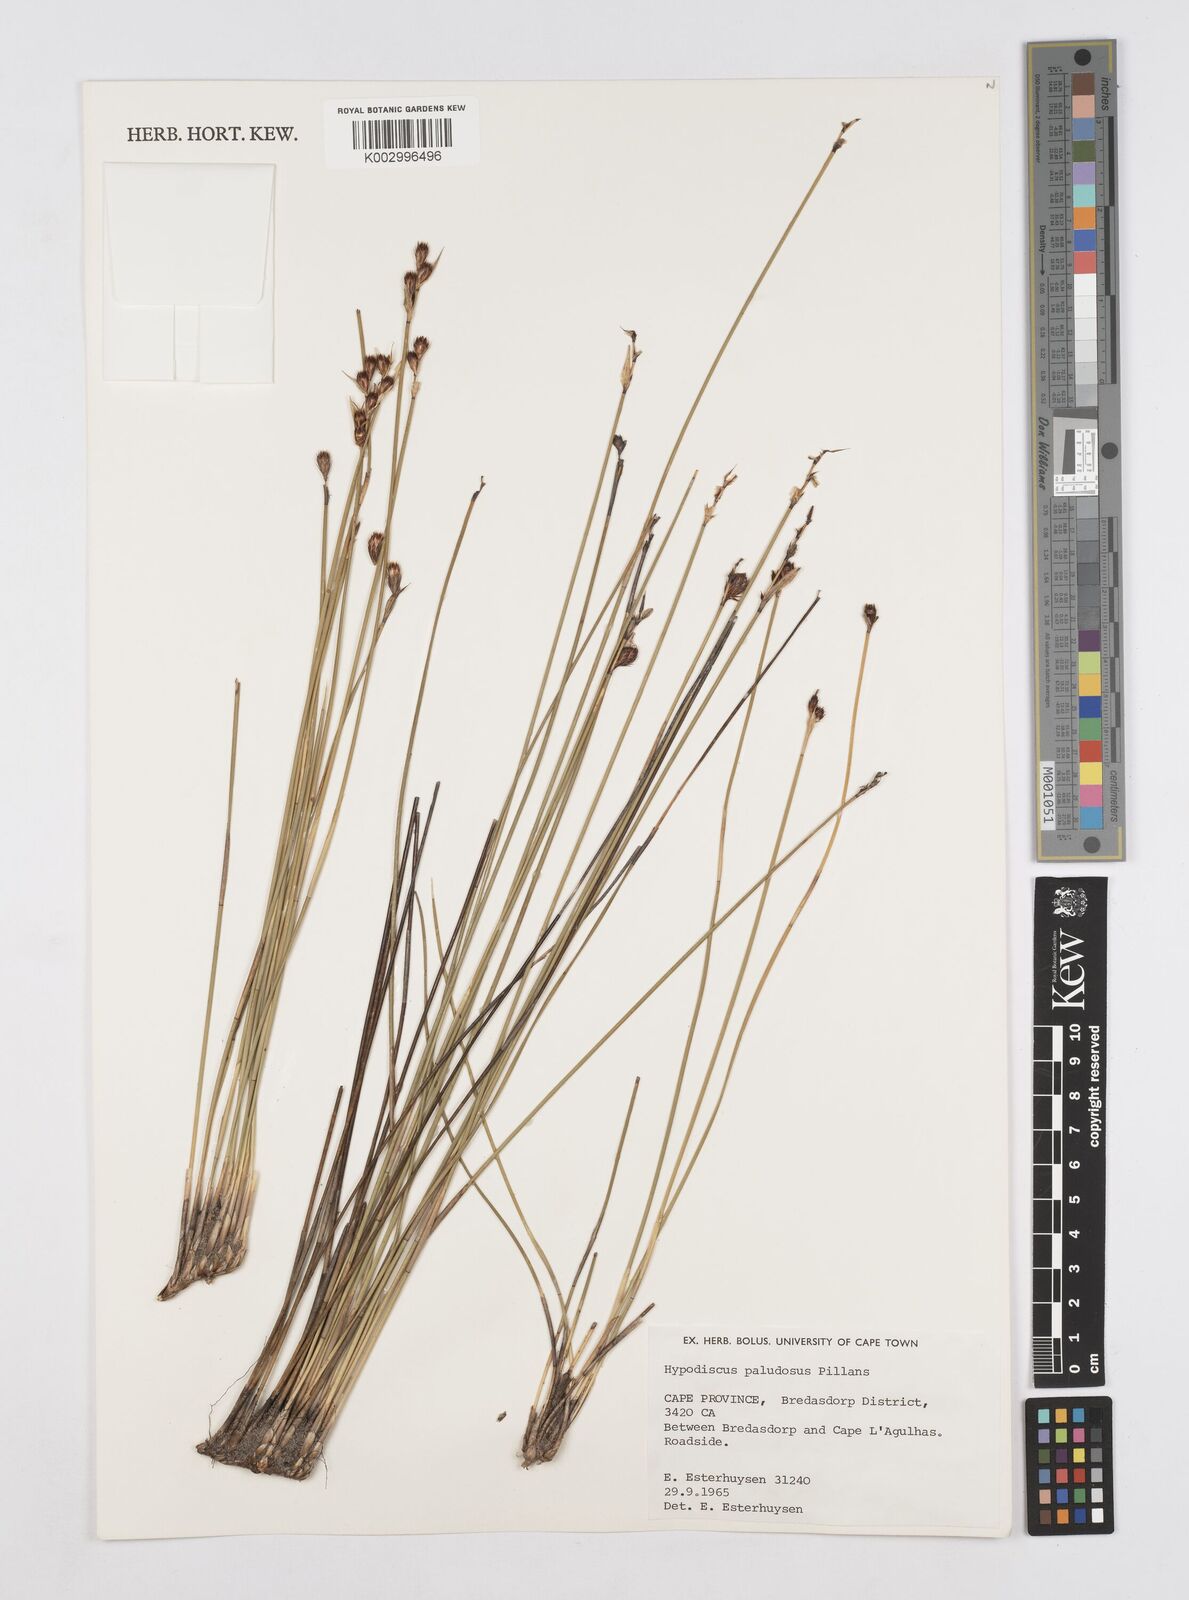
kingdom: Plantae
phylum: Tracheophyta
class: Liliopsida
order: Poales
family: Restionaceae
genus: Hypodiscus
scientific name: Hypodiscus rugosus
